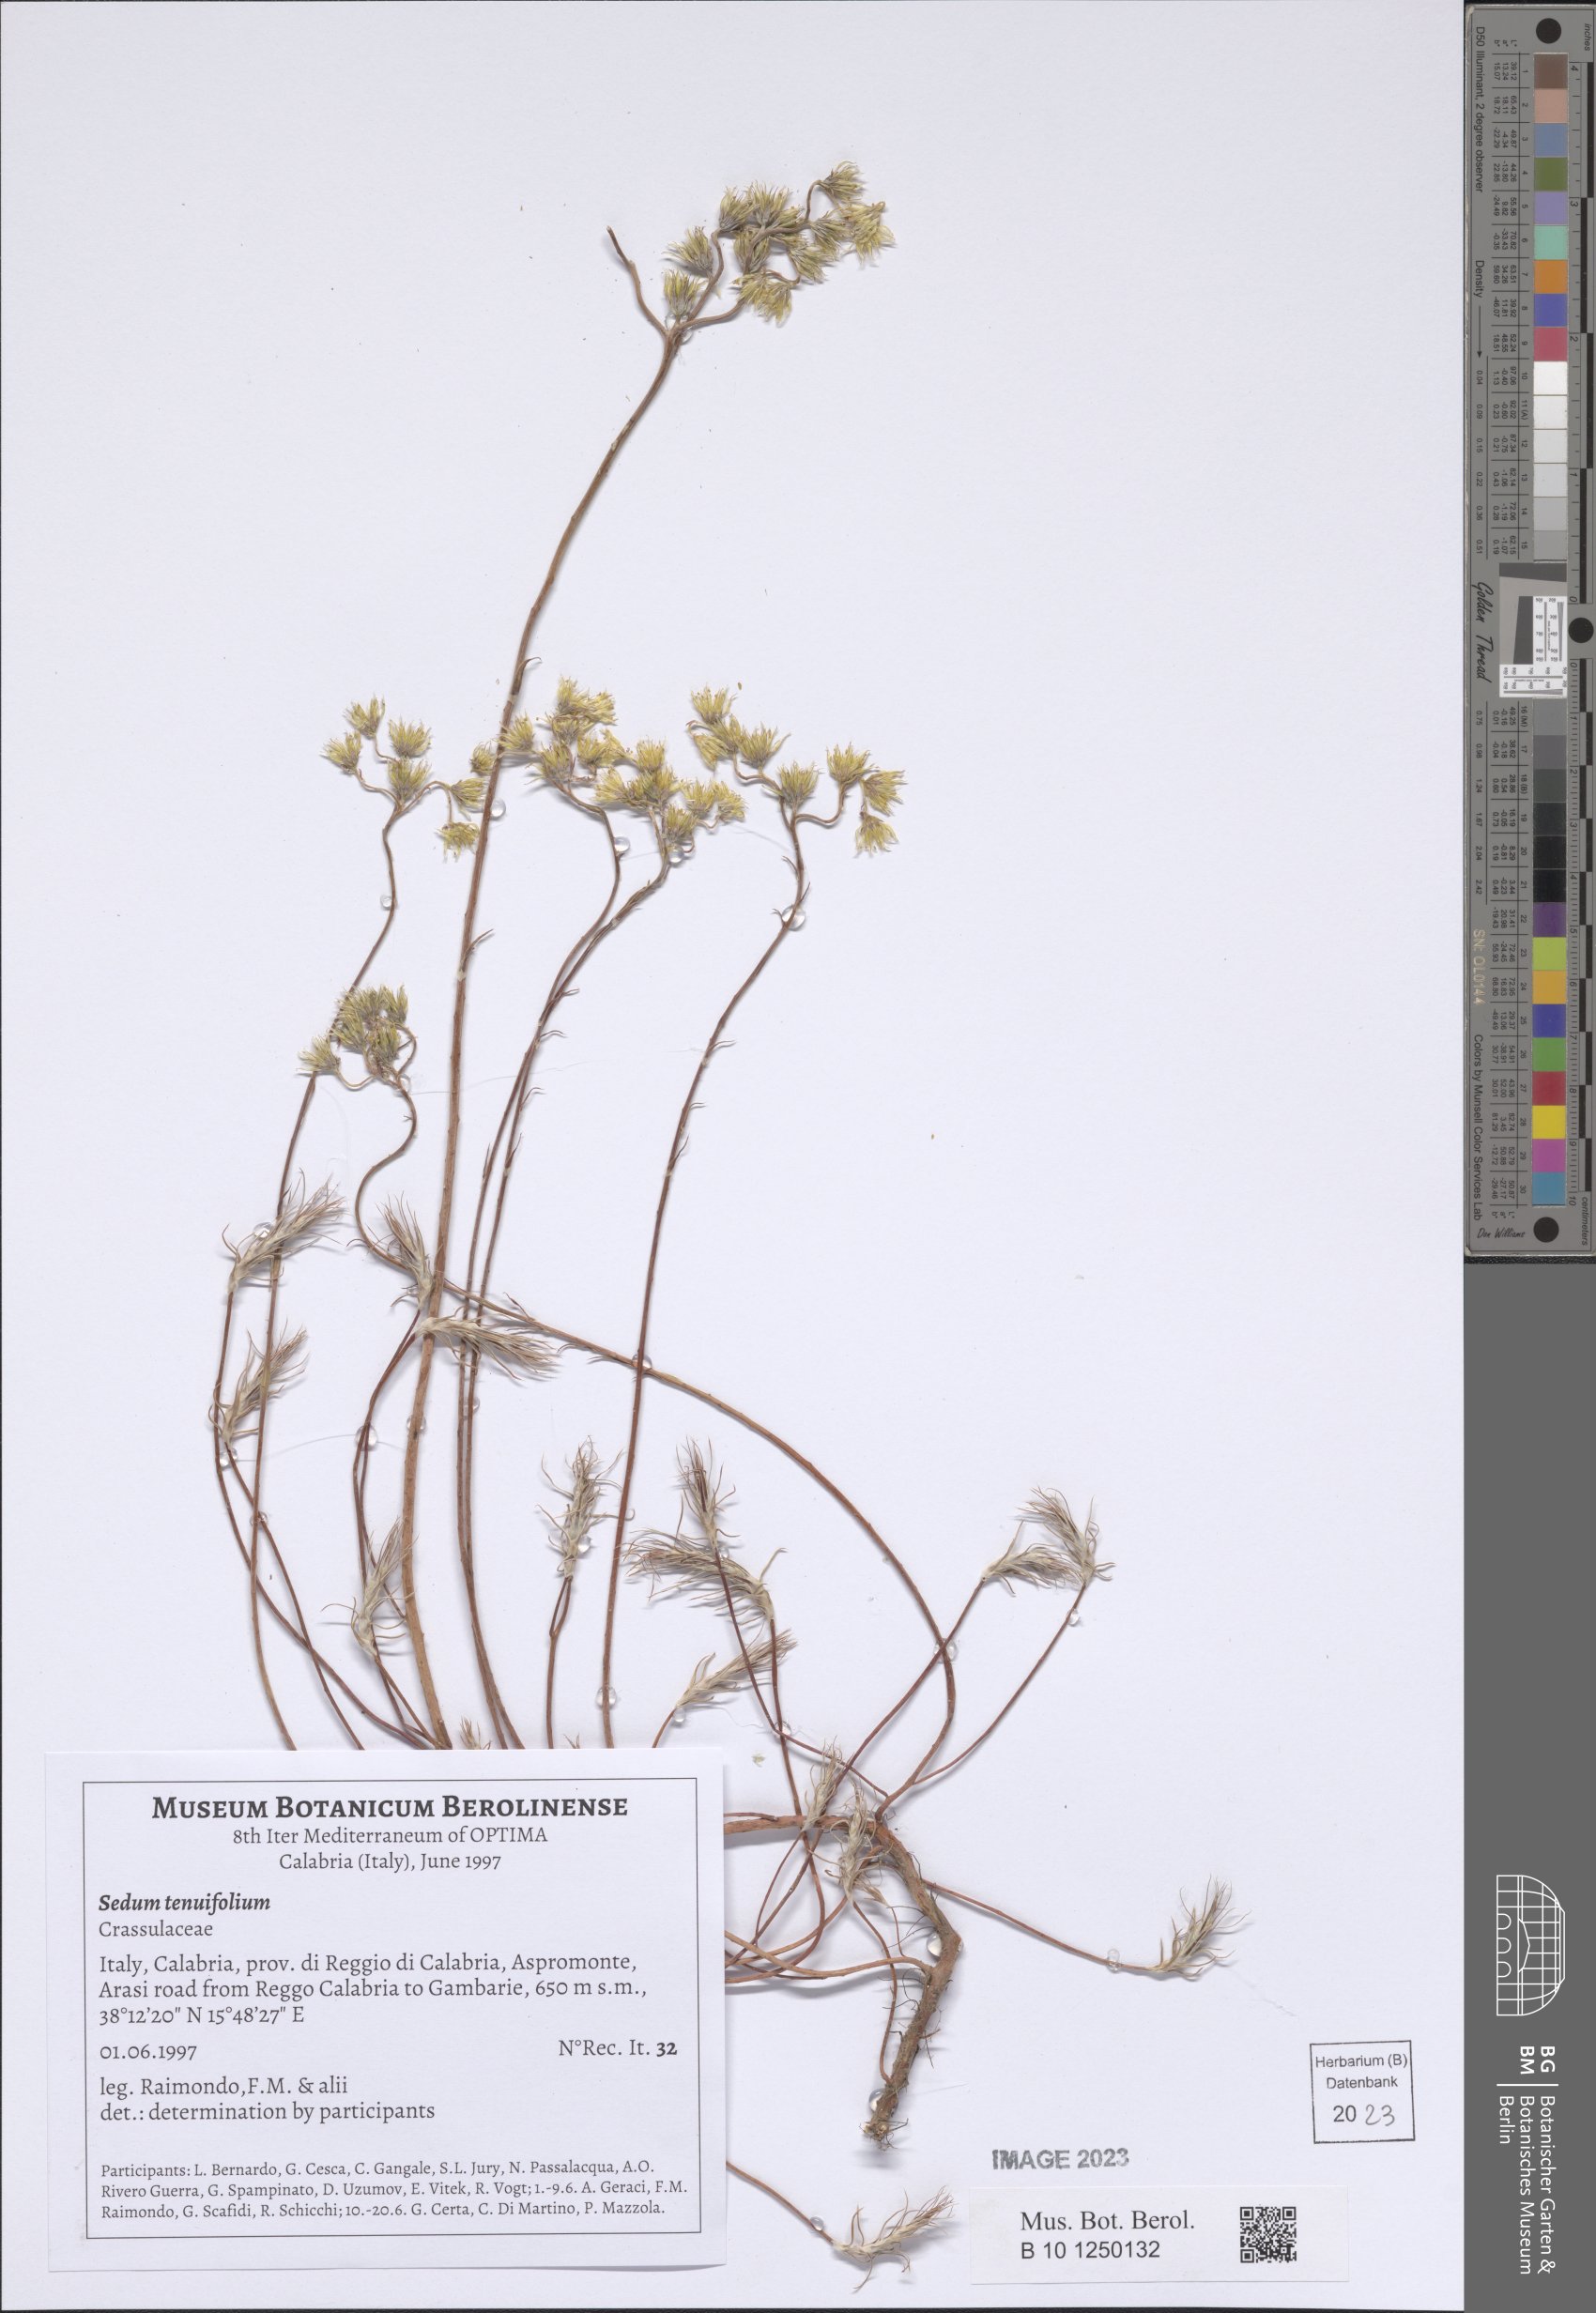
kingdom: Plantae
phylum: Tracheophyta
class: Magnoliopsida
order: Saxifragales
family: Crassulaceae
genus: Petrosedum
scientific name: Petrosedum tenuifolium
